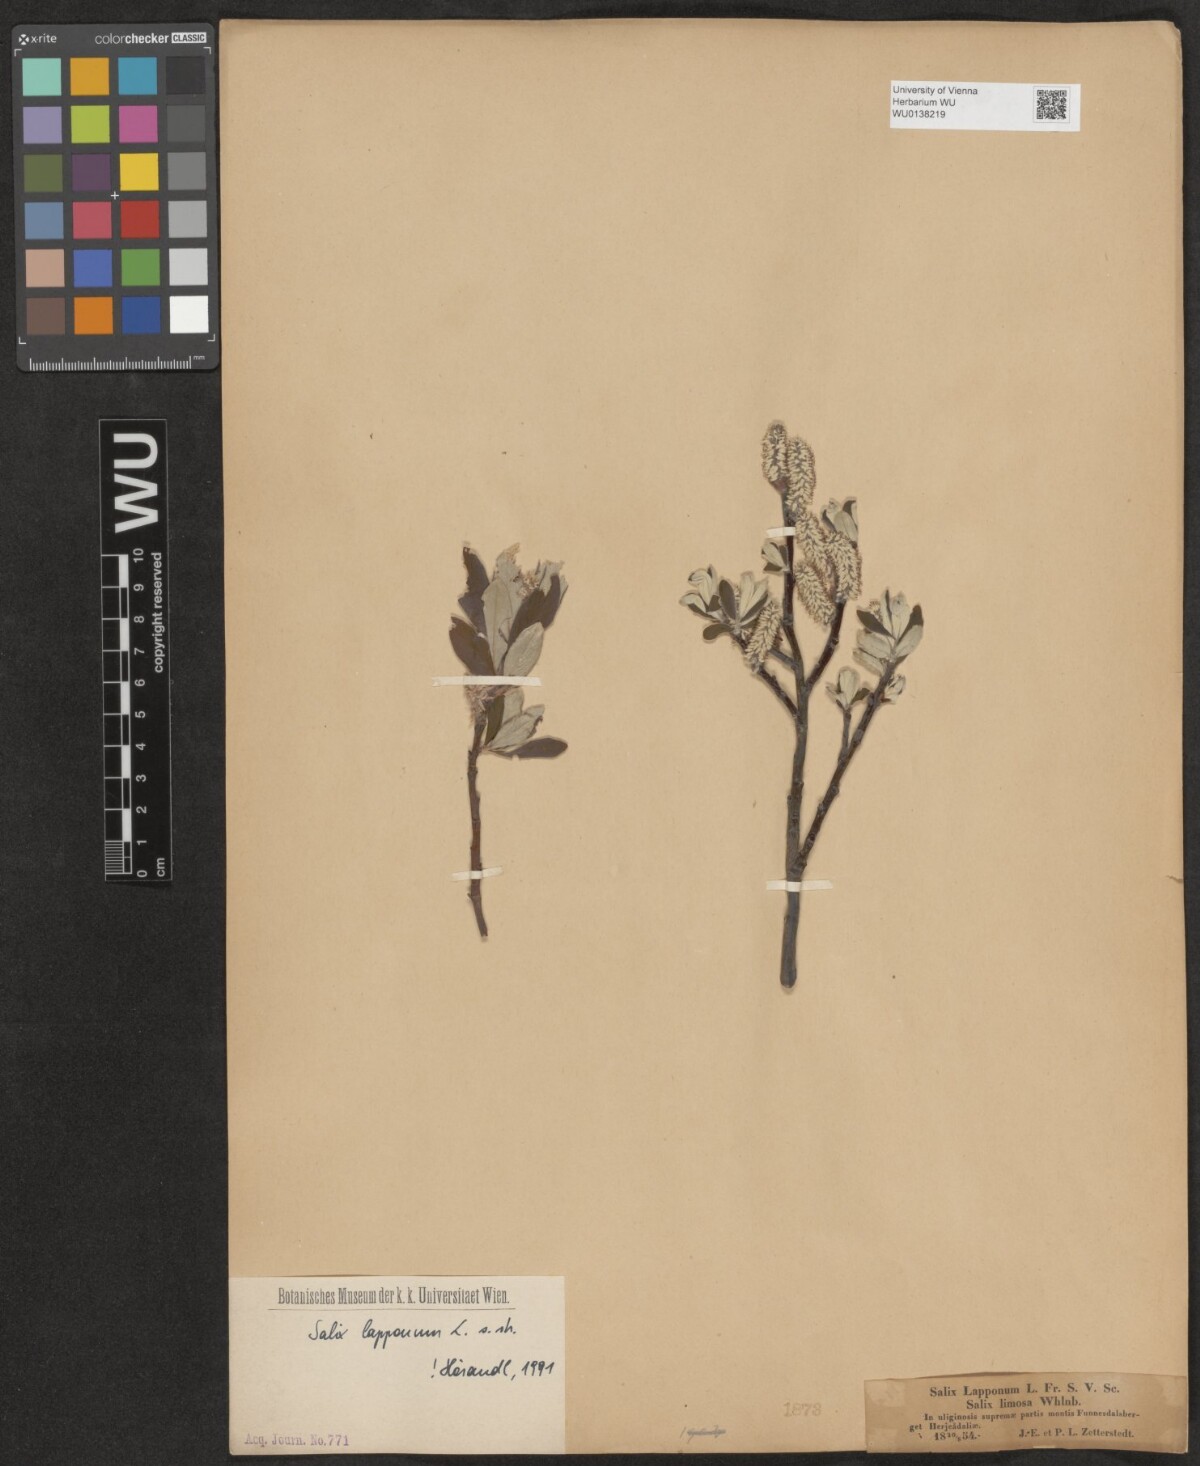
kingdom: Plantae
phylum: Tracheophyta
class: Magnoliopsida
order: Malpighiales
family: Salicaceae
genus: Salix
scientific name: Salix lapponum
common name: Downy willow
